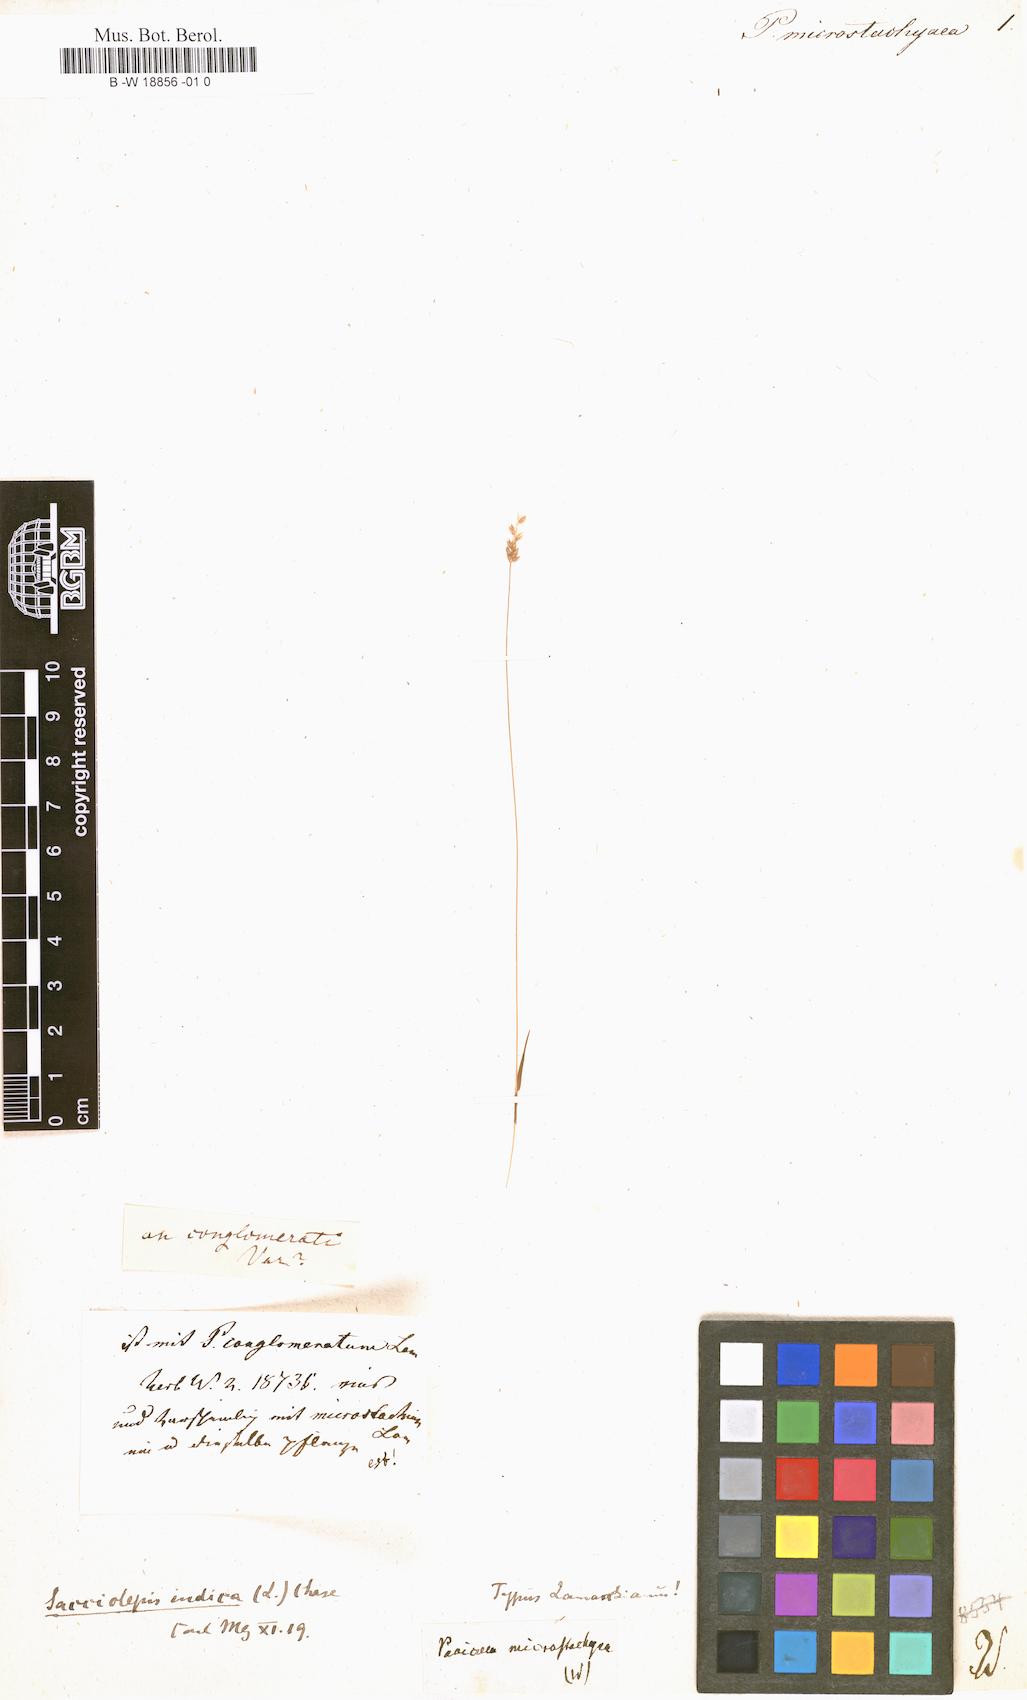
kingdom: Plantae
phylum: Tracheophyta
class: Liliopsida
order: Poales
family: Poaceae
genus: Sacciolepis
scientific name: Sacciolepis indica
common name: Glenwoodgrass
